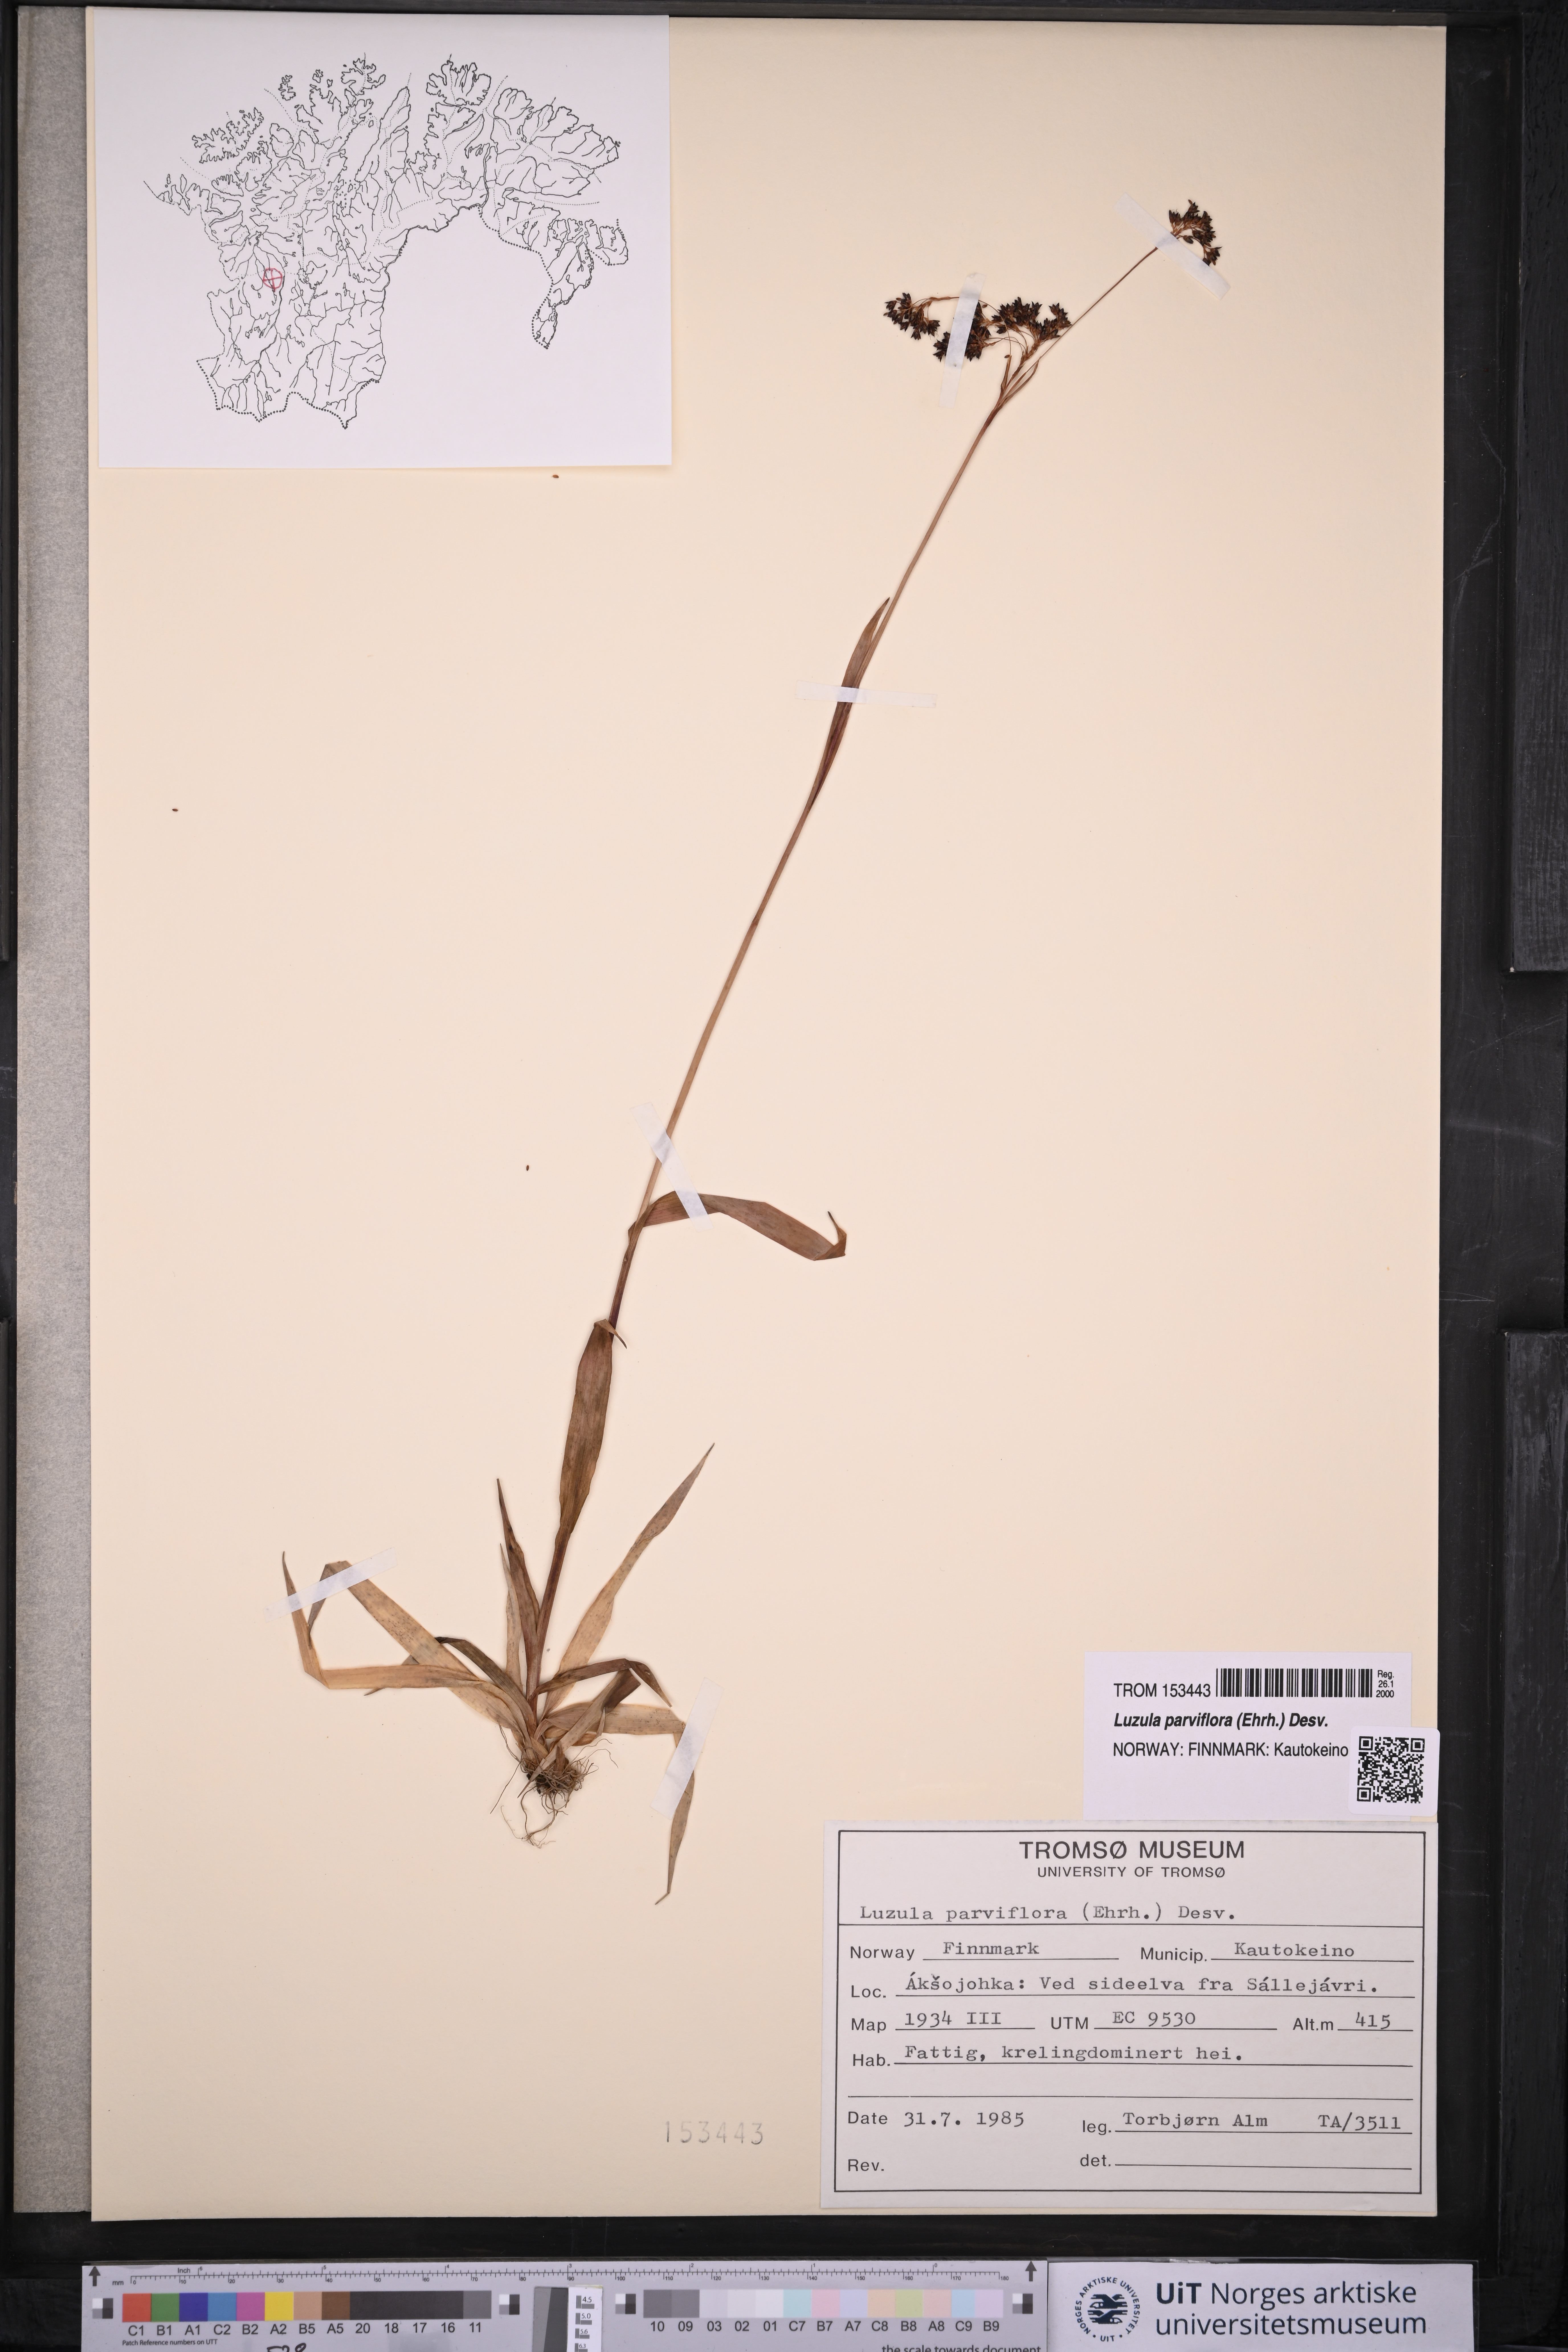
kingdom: Plantae
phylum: Tracheophyta
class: Liliopsida
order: Poales
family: Juncaceae
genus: Luzula
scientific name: Luzula parviflora
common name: Millet woodrush
